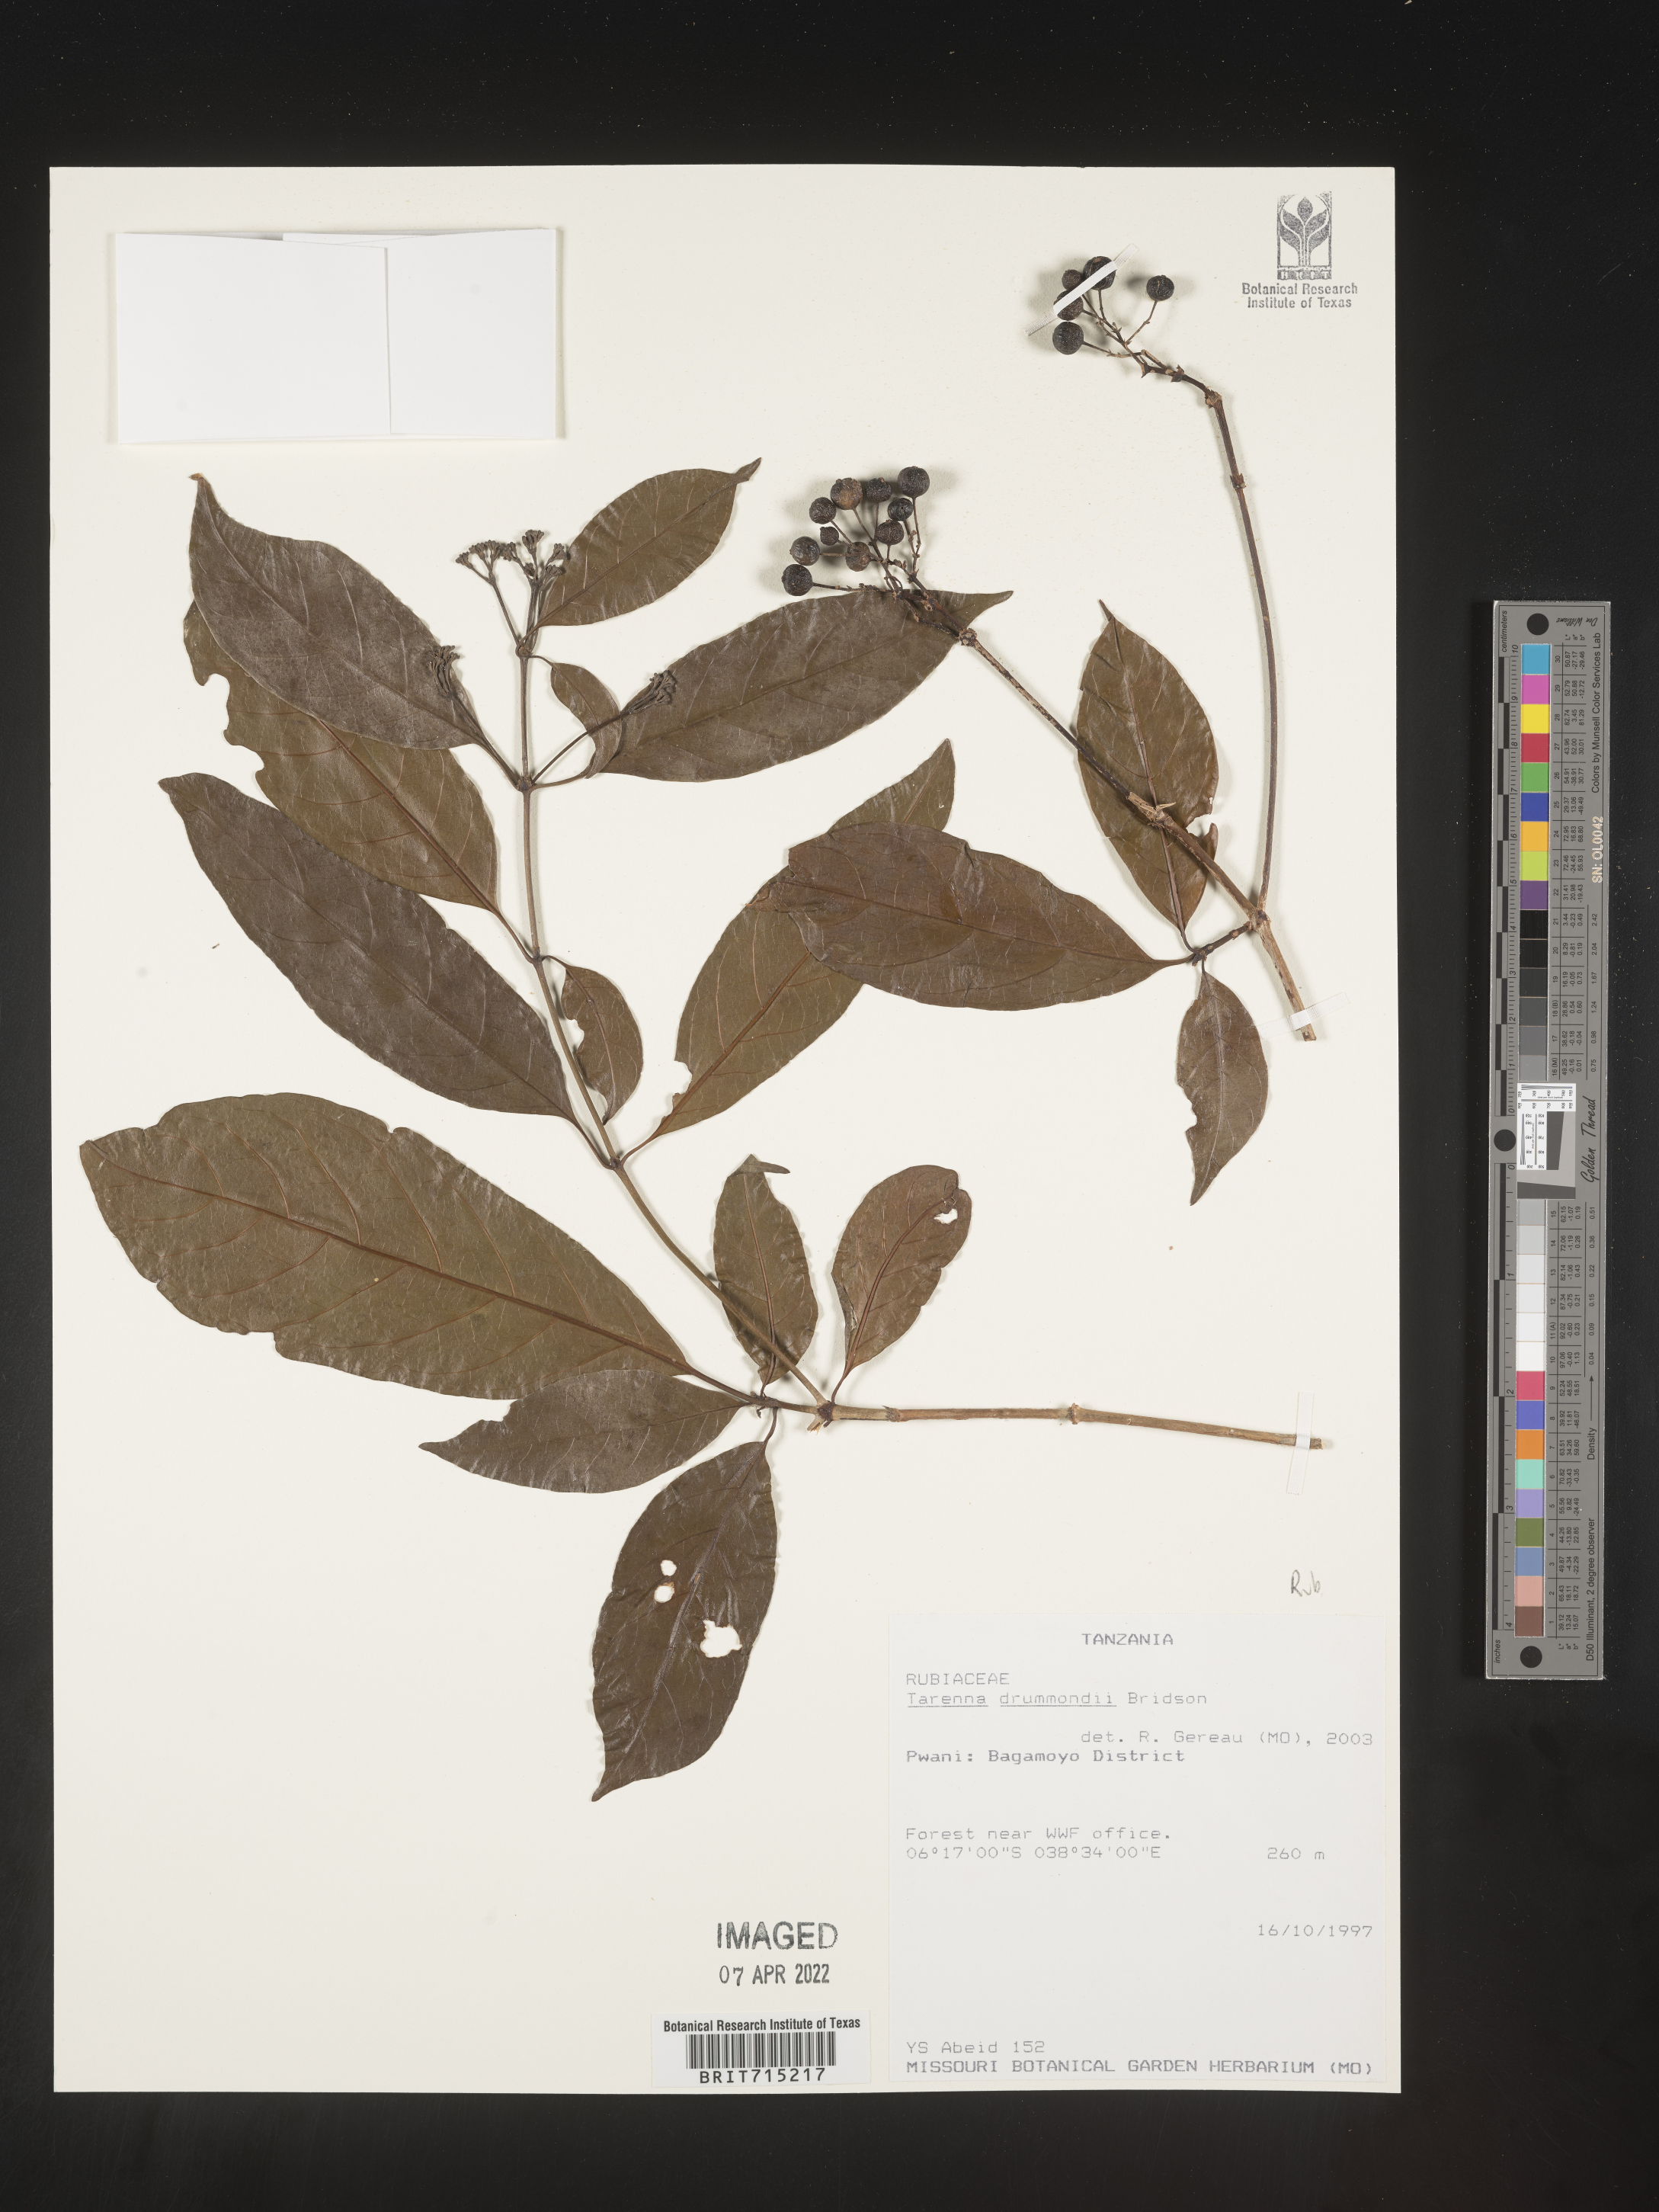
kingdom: Plantae
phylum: Tracheophyta
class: Magnoliopsida
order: Gentianales
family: Rubiaceae
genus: Tarenna
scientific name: Tarenna
